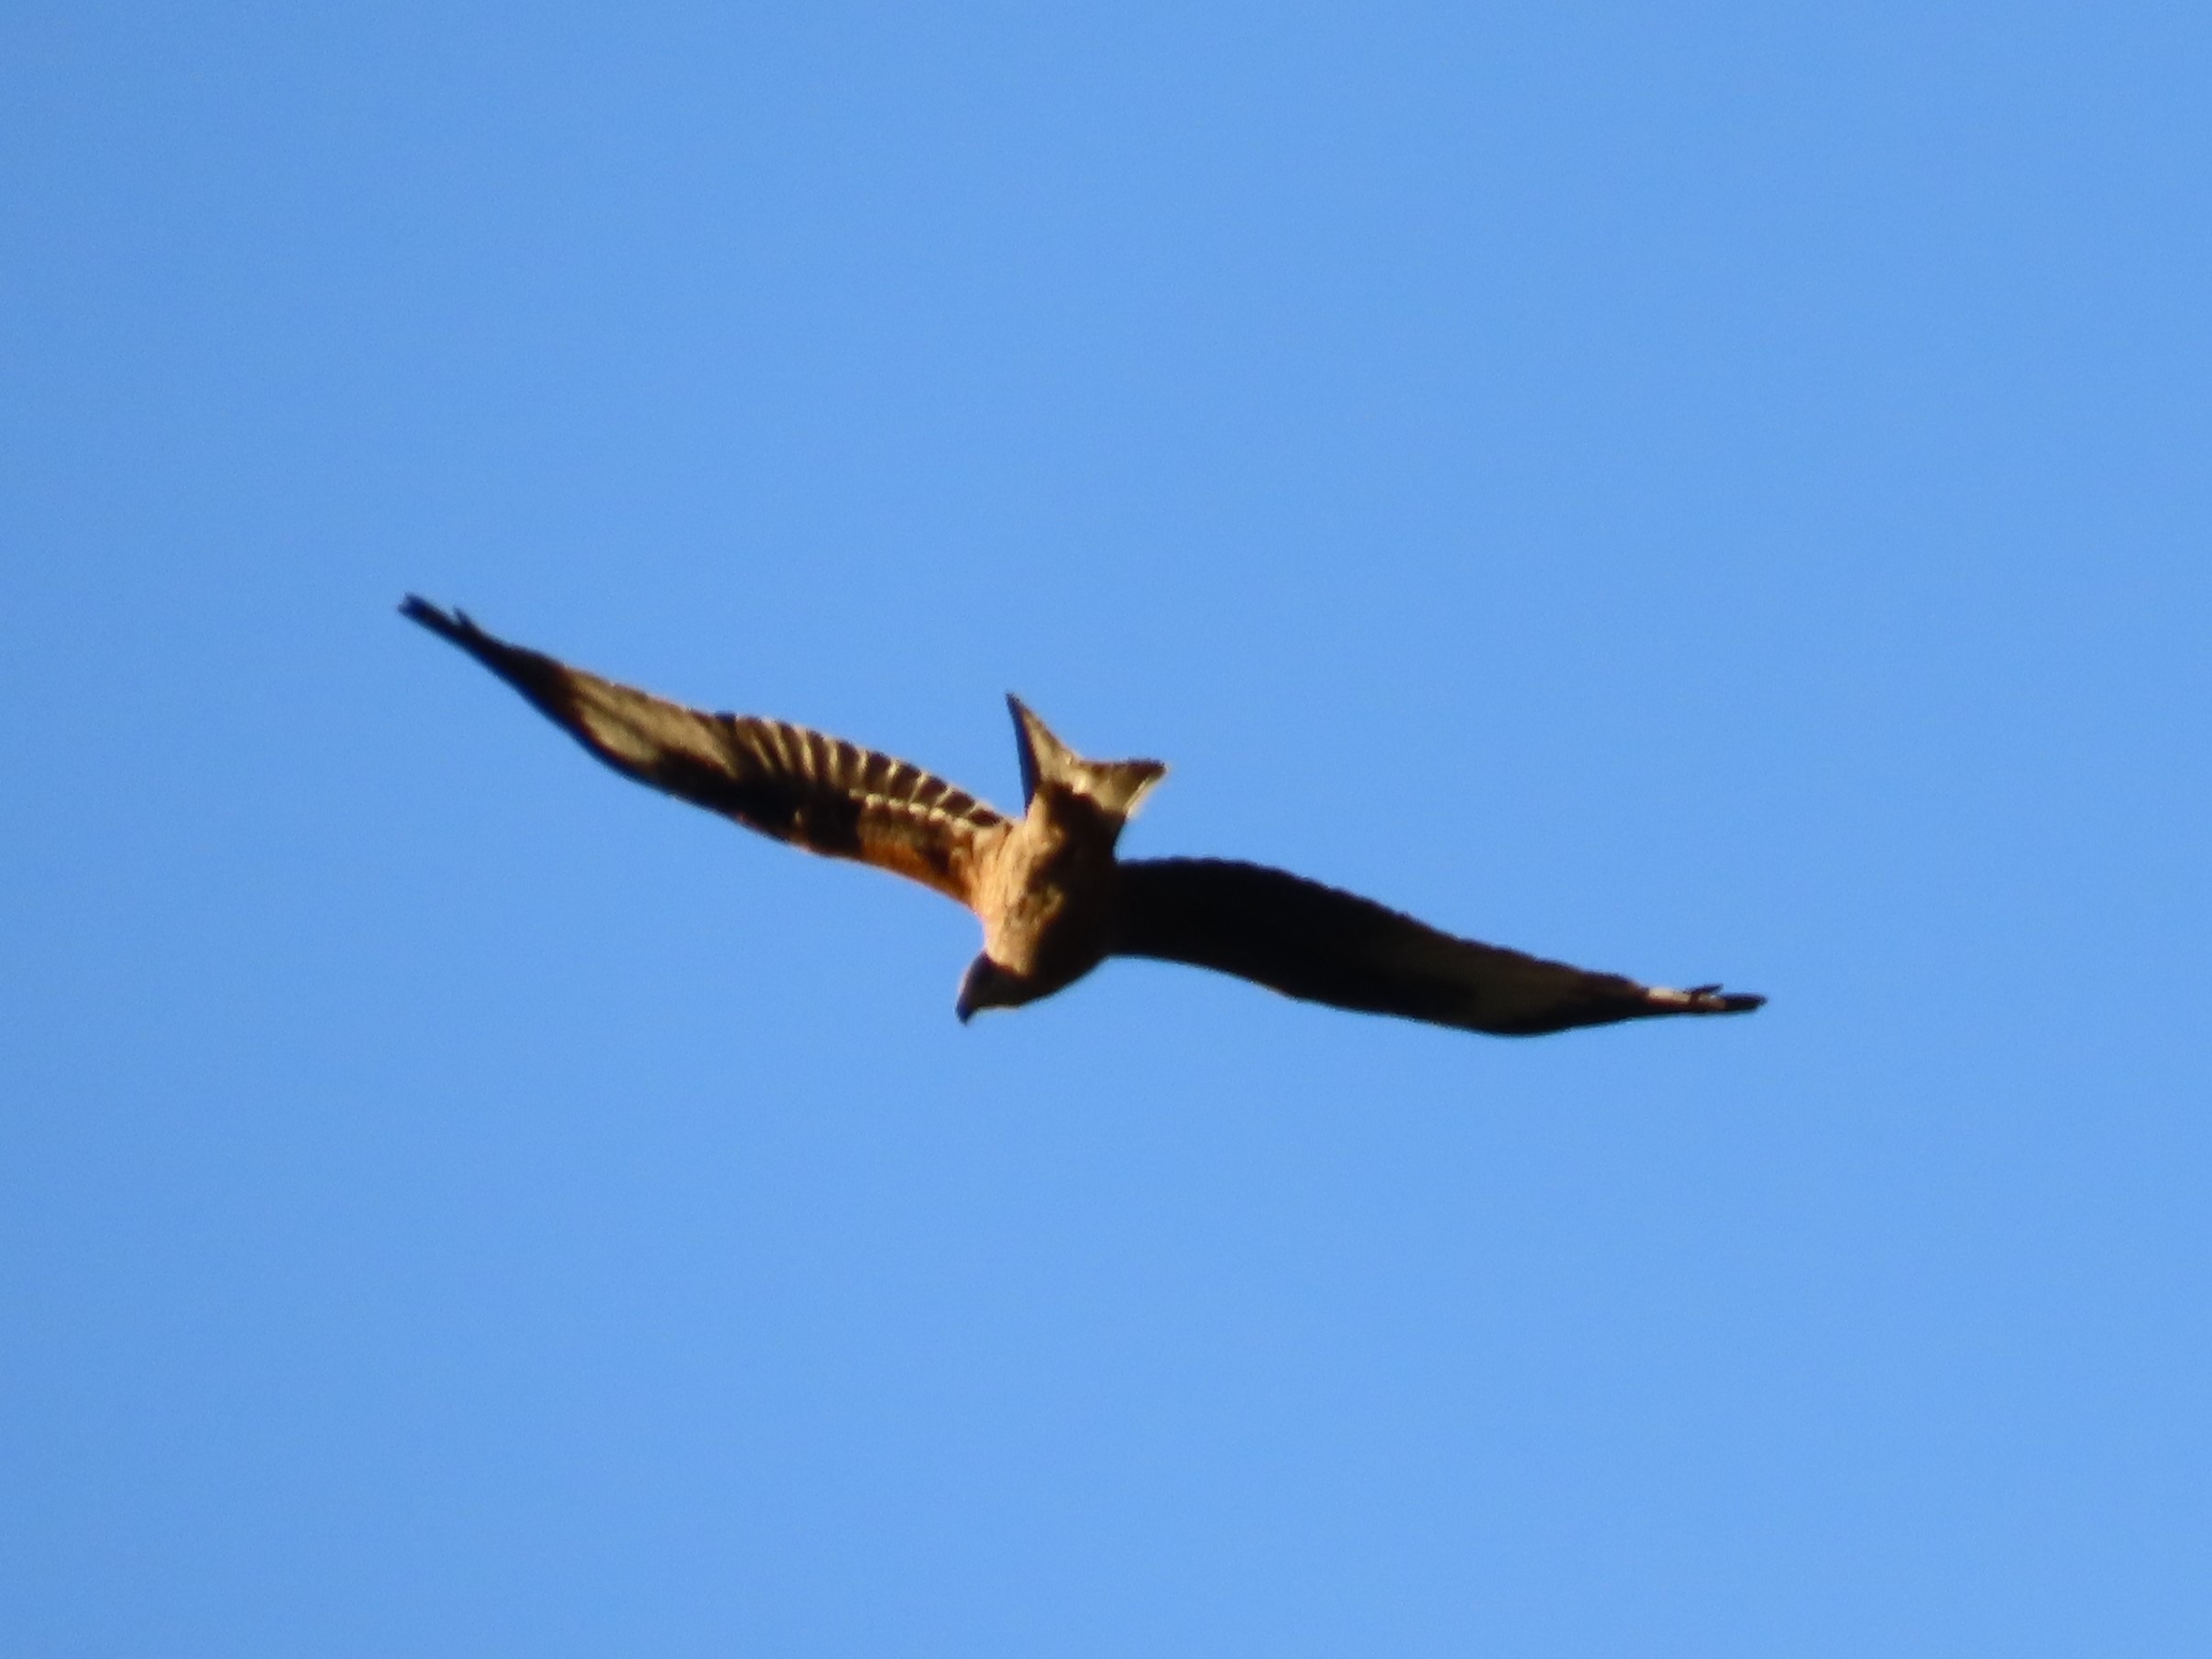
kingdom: Animalia
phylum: Chordata
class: Aves
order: Accipitriformes
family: Accipitridae
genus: Milvus
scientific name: Milvus milvus
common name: Rød glente
